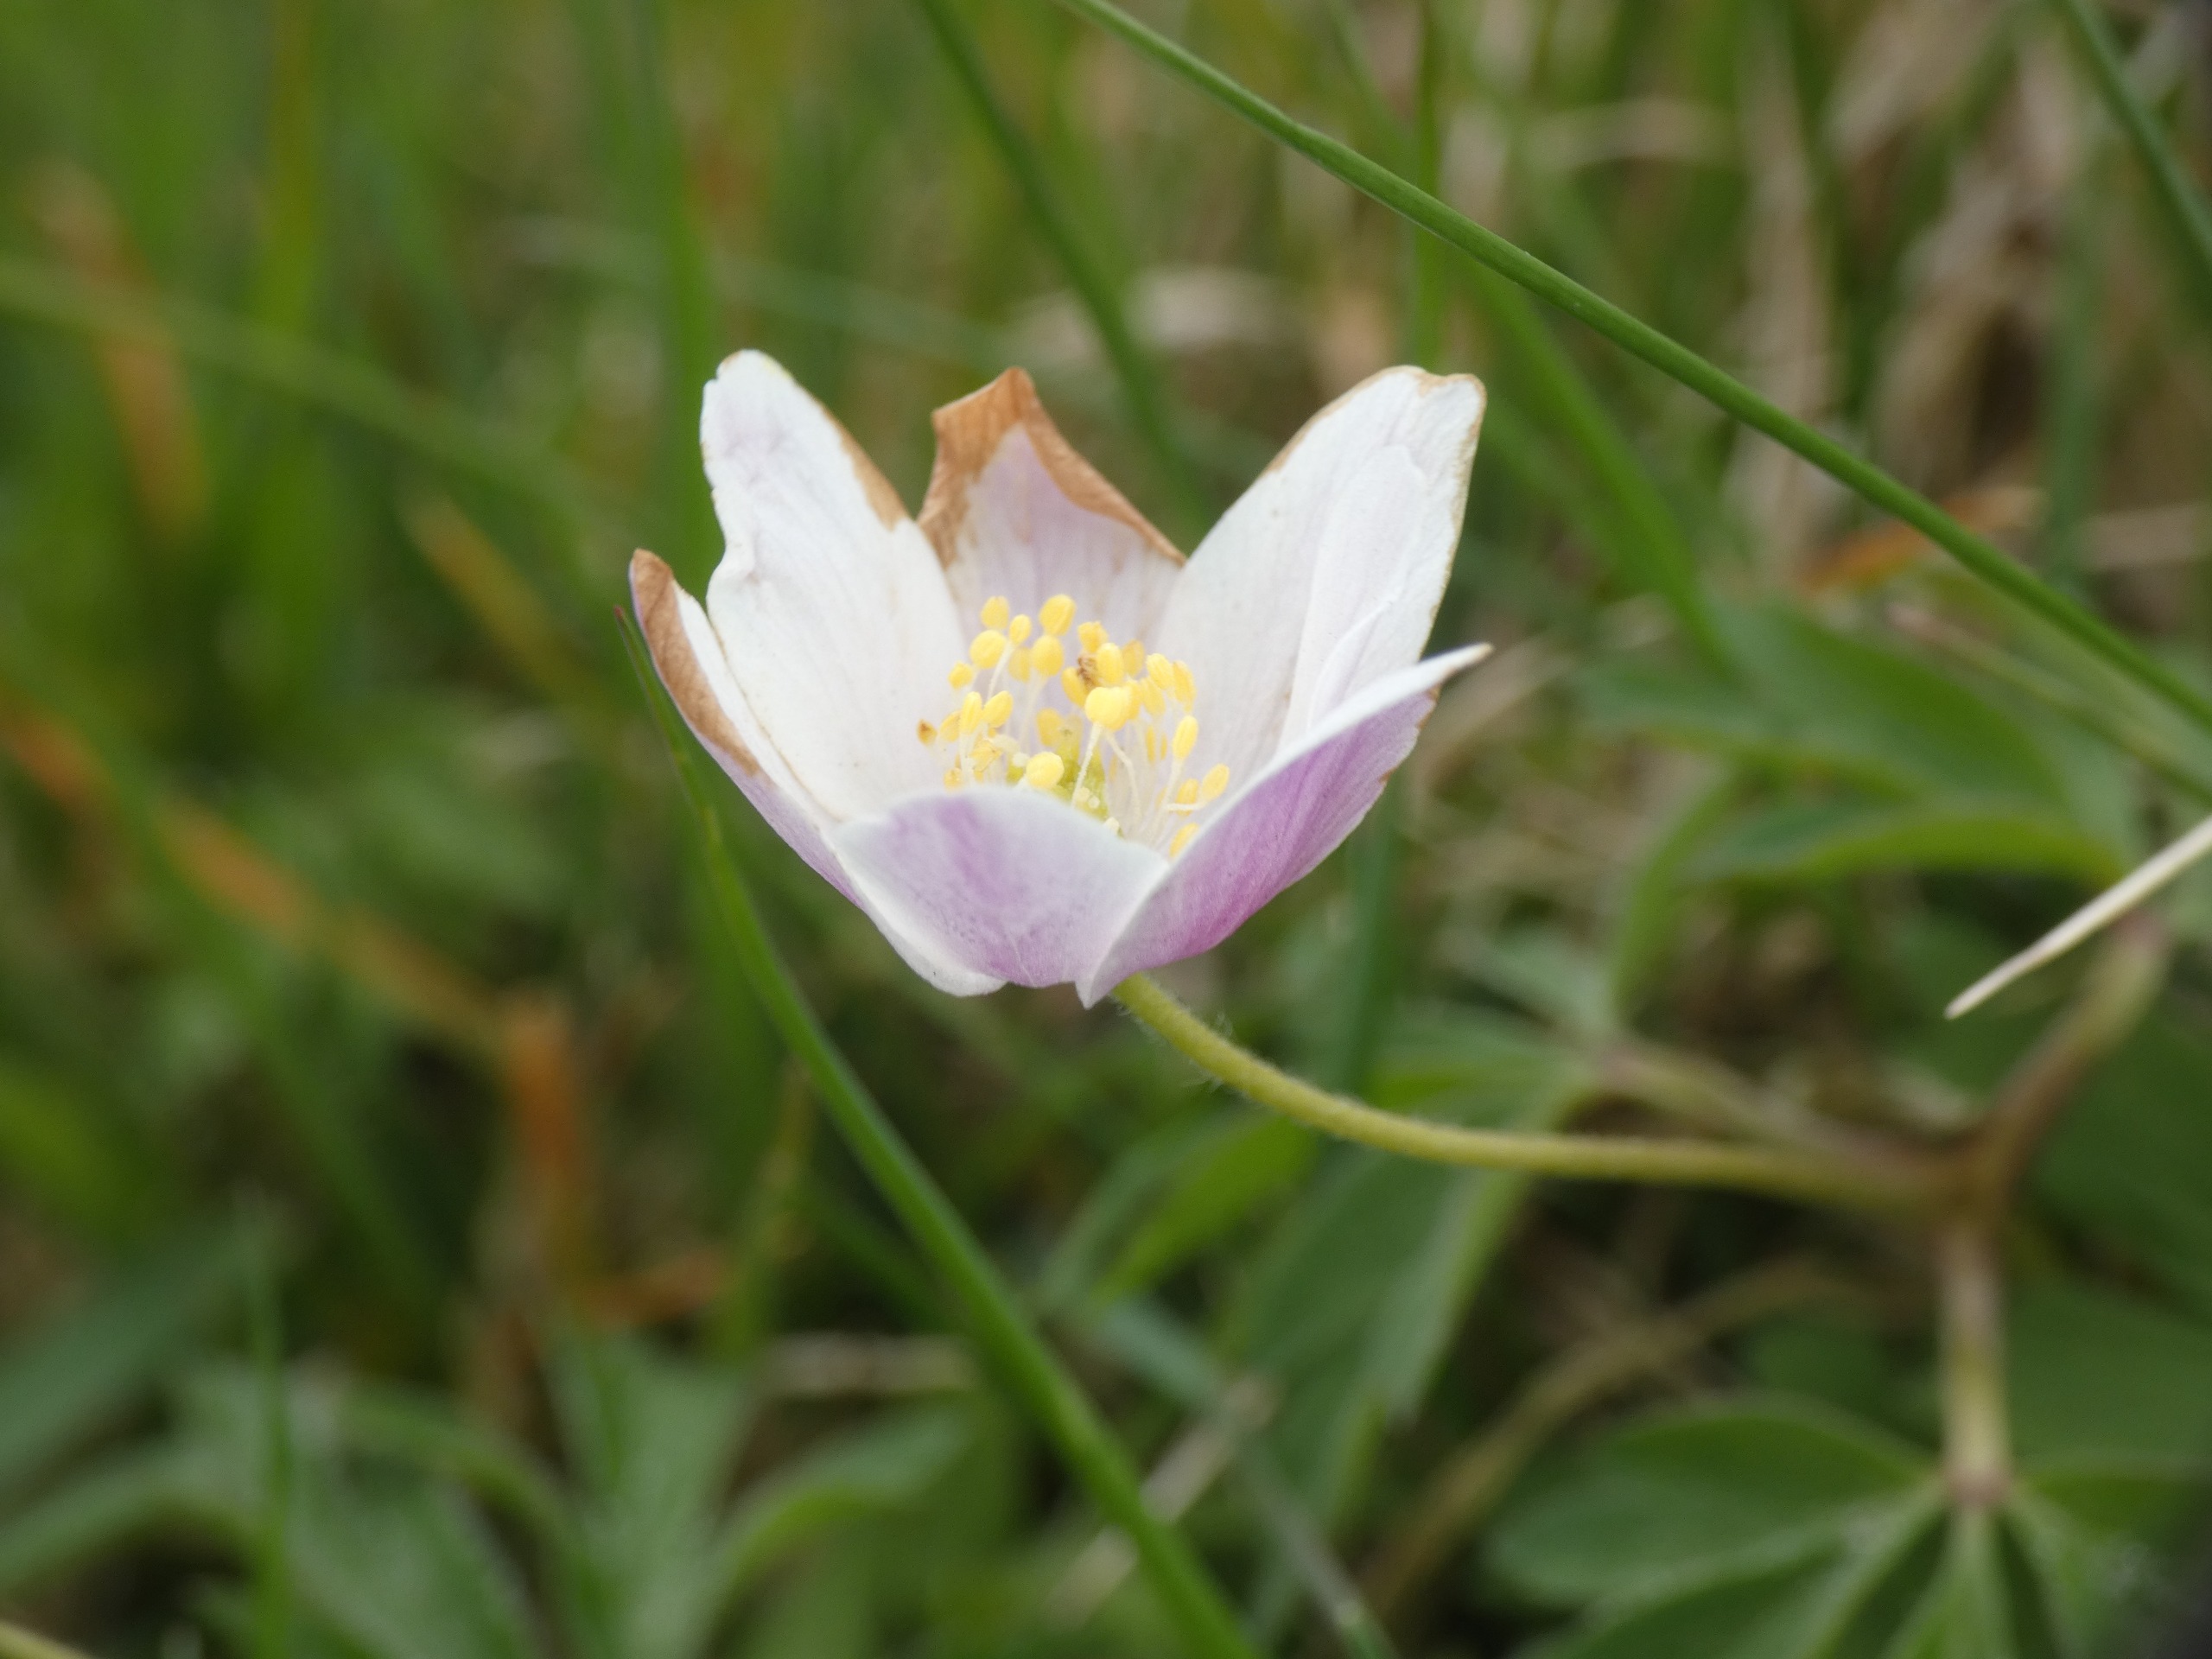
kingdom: Plantae
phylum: Tracheophyta
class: Magnoliopsida
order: Ranunculales
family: Ranunculaceae
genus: Anemone
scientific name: Anemone nemorosa
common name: Hvid anemone
